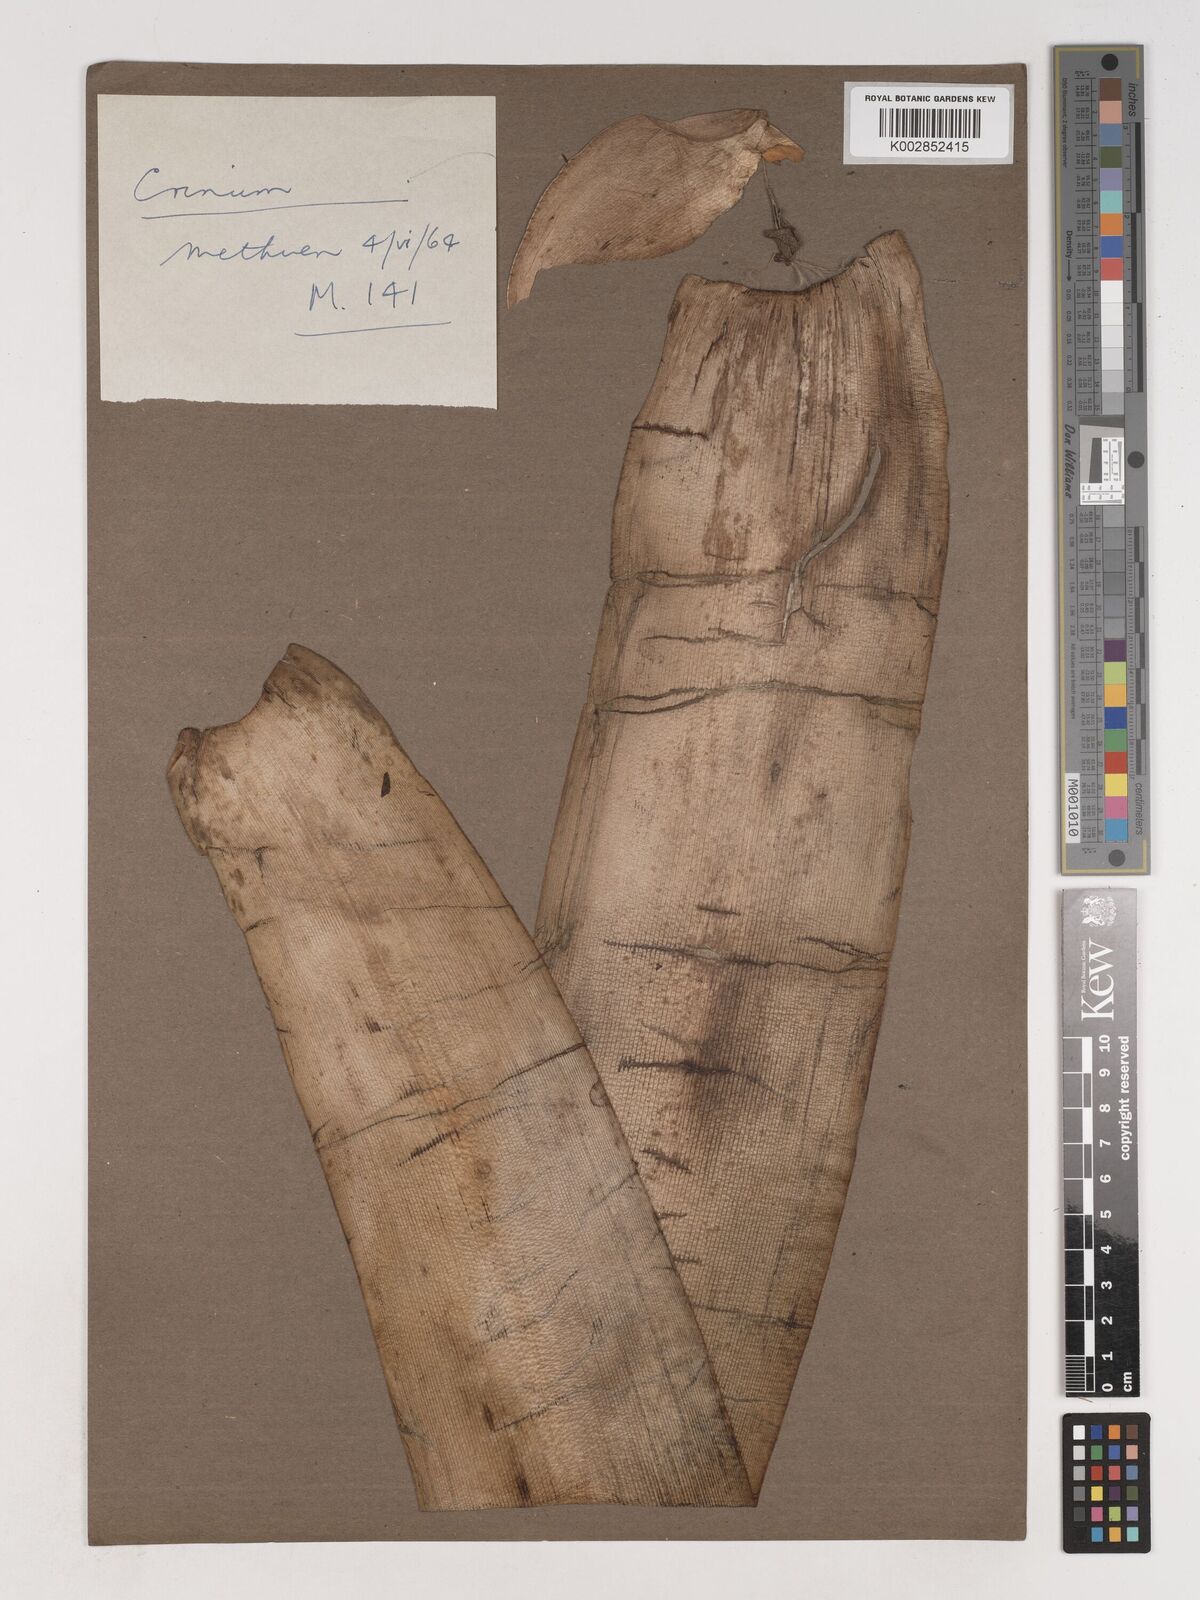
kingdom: Plantae
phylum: Tracheophyta
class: Liliopsida
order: Asparagales
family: Amaryllidaceae
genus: Crinum
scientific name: Crinum
